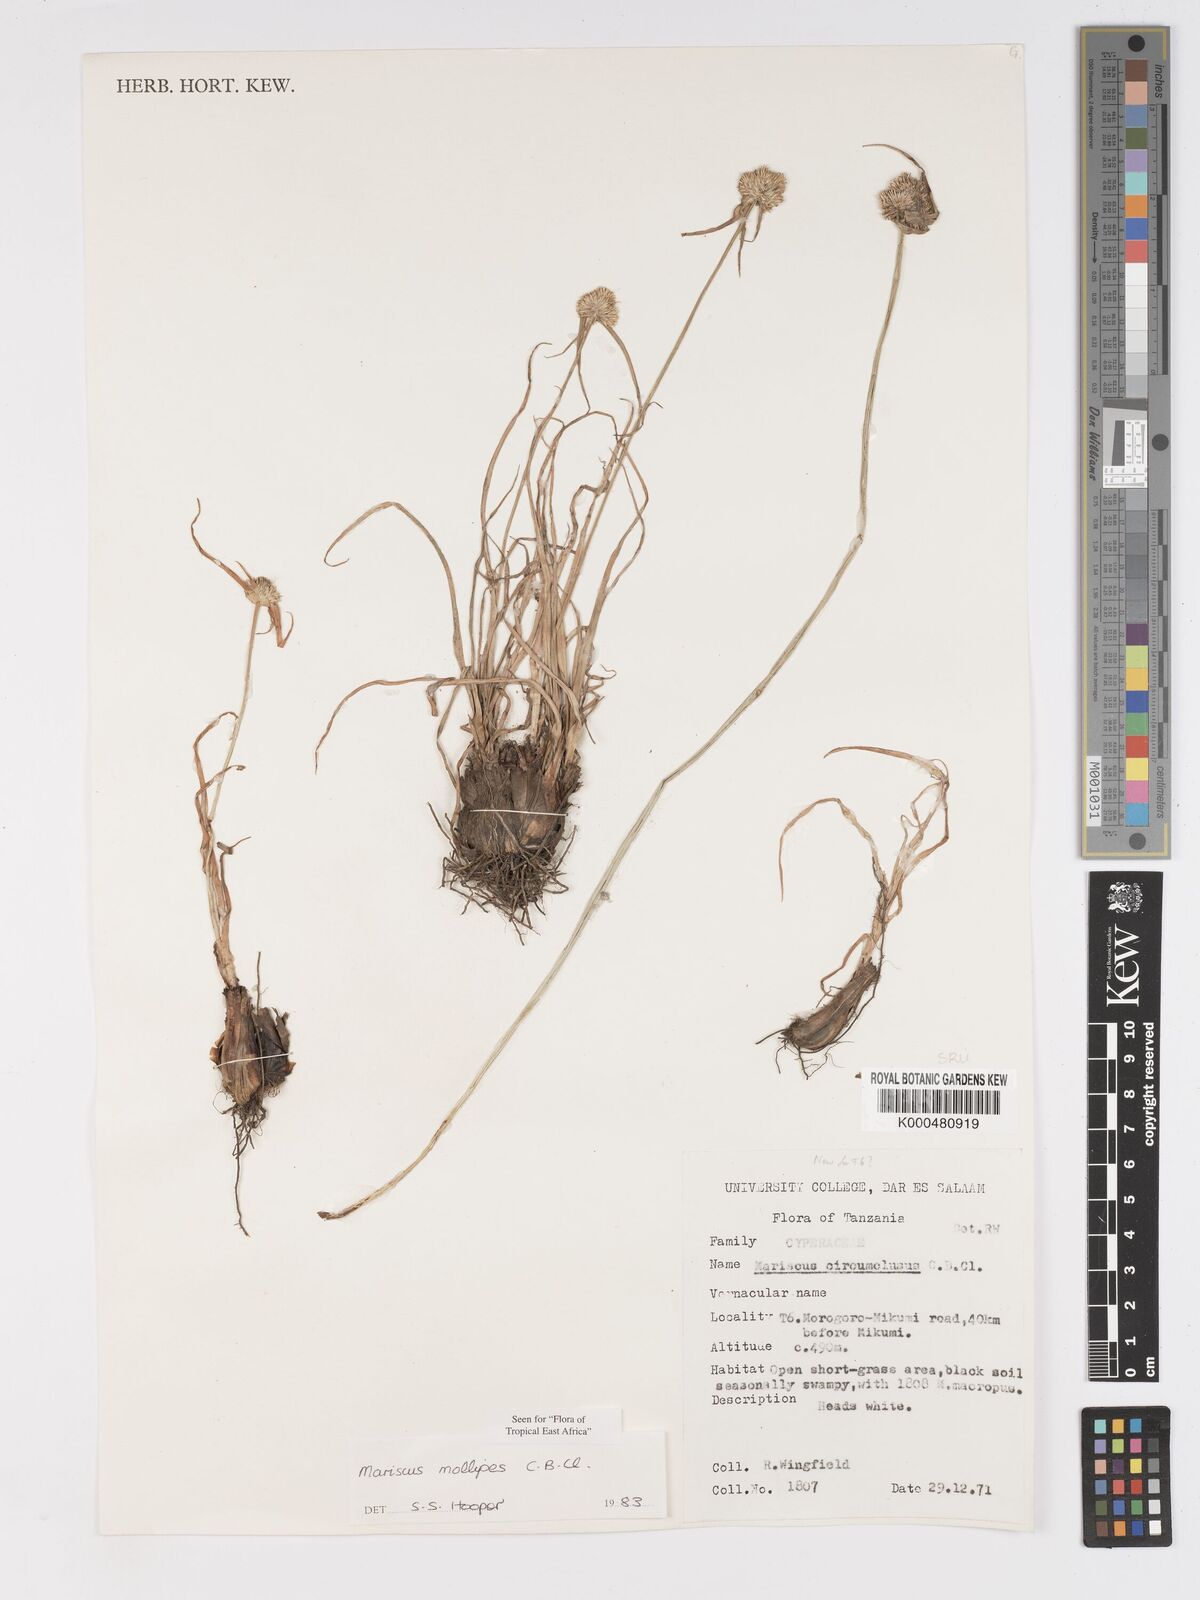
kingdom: Plantae
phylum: Tracheophyta
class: Liliopsida
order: Poales
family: Cyperaceae
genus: Cyperus
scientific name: Cyperus mollipes
